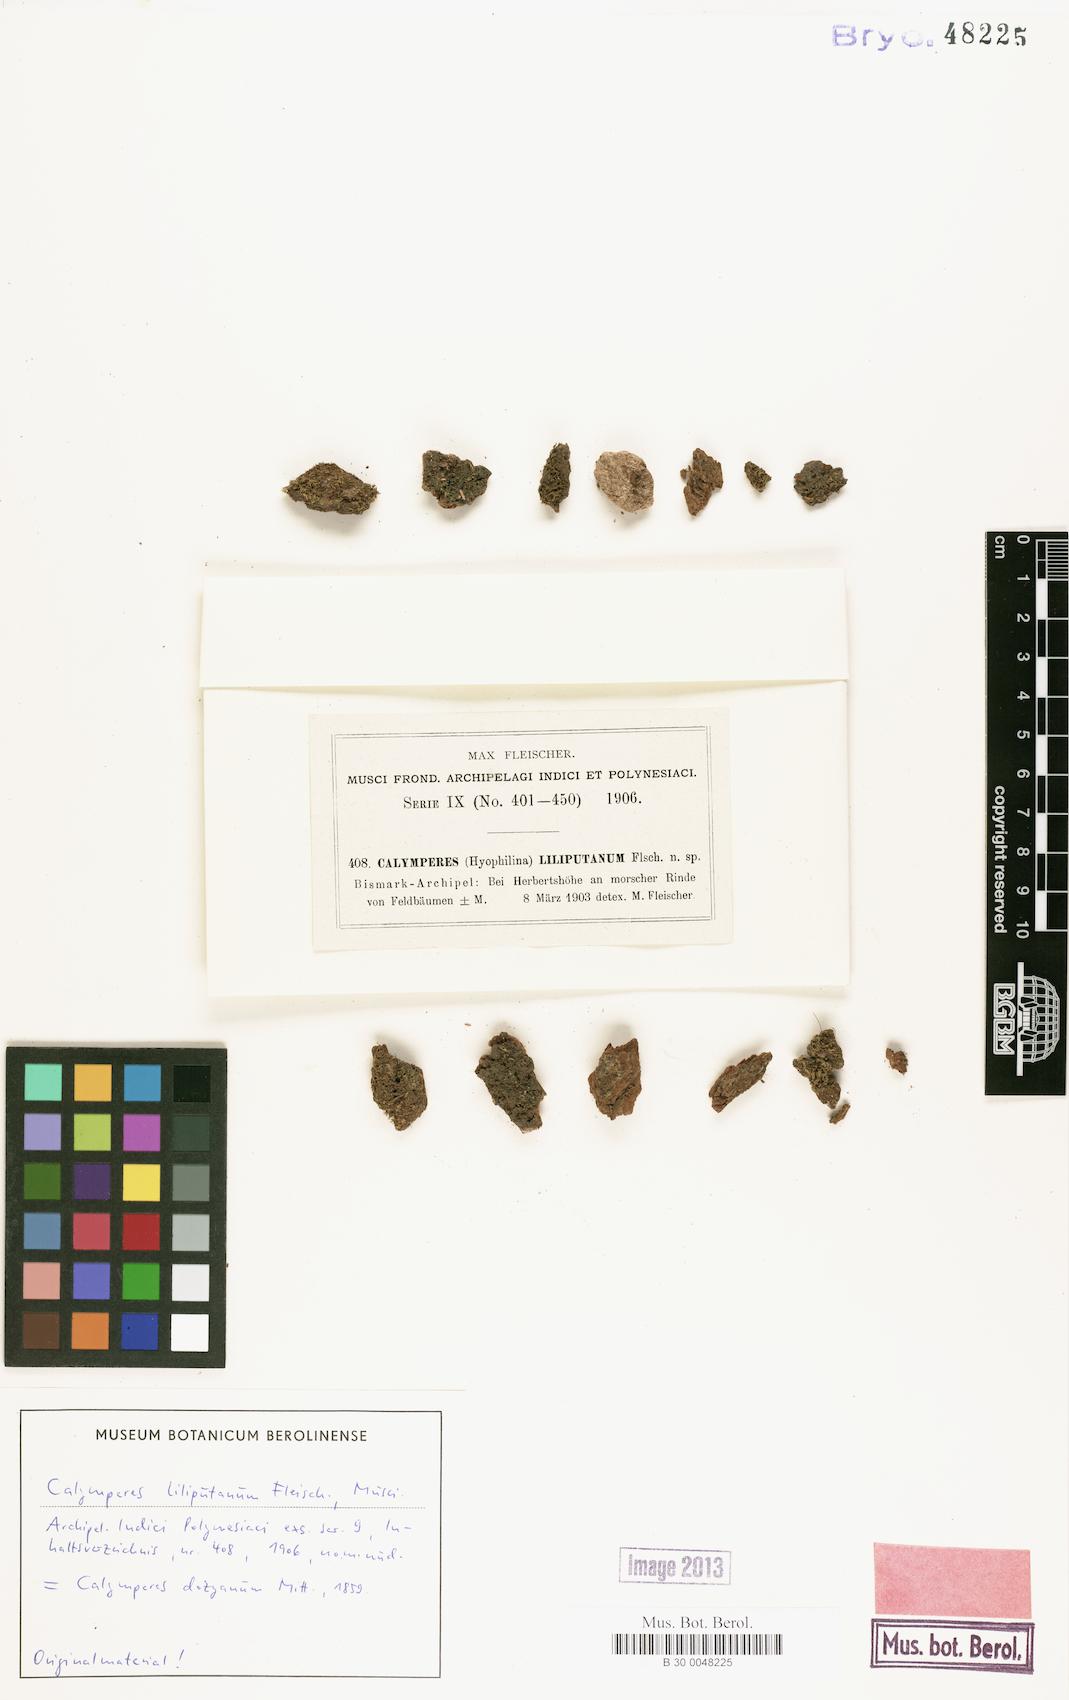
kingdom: Plantae
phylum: Bryophyta
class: Bryopsida
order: Dicranales
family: Calymperaceae
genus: Calymperes
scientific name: Calymperes moluccense
